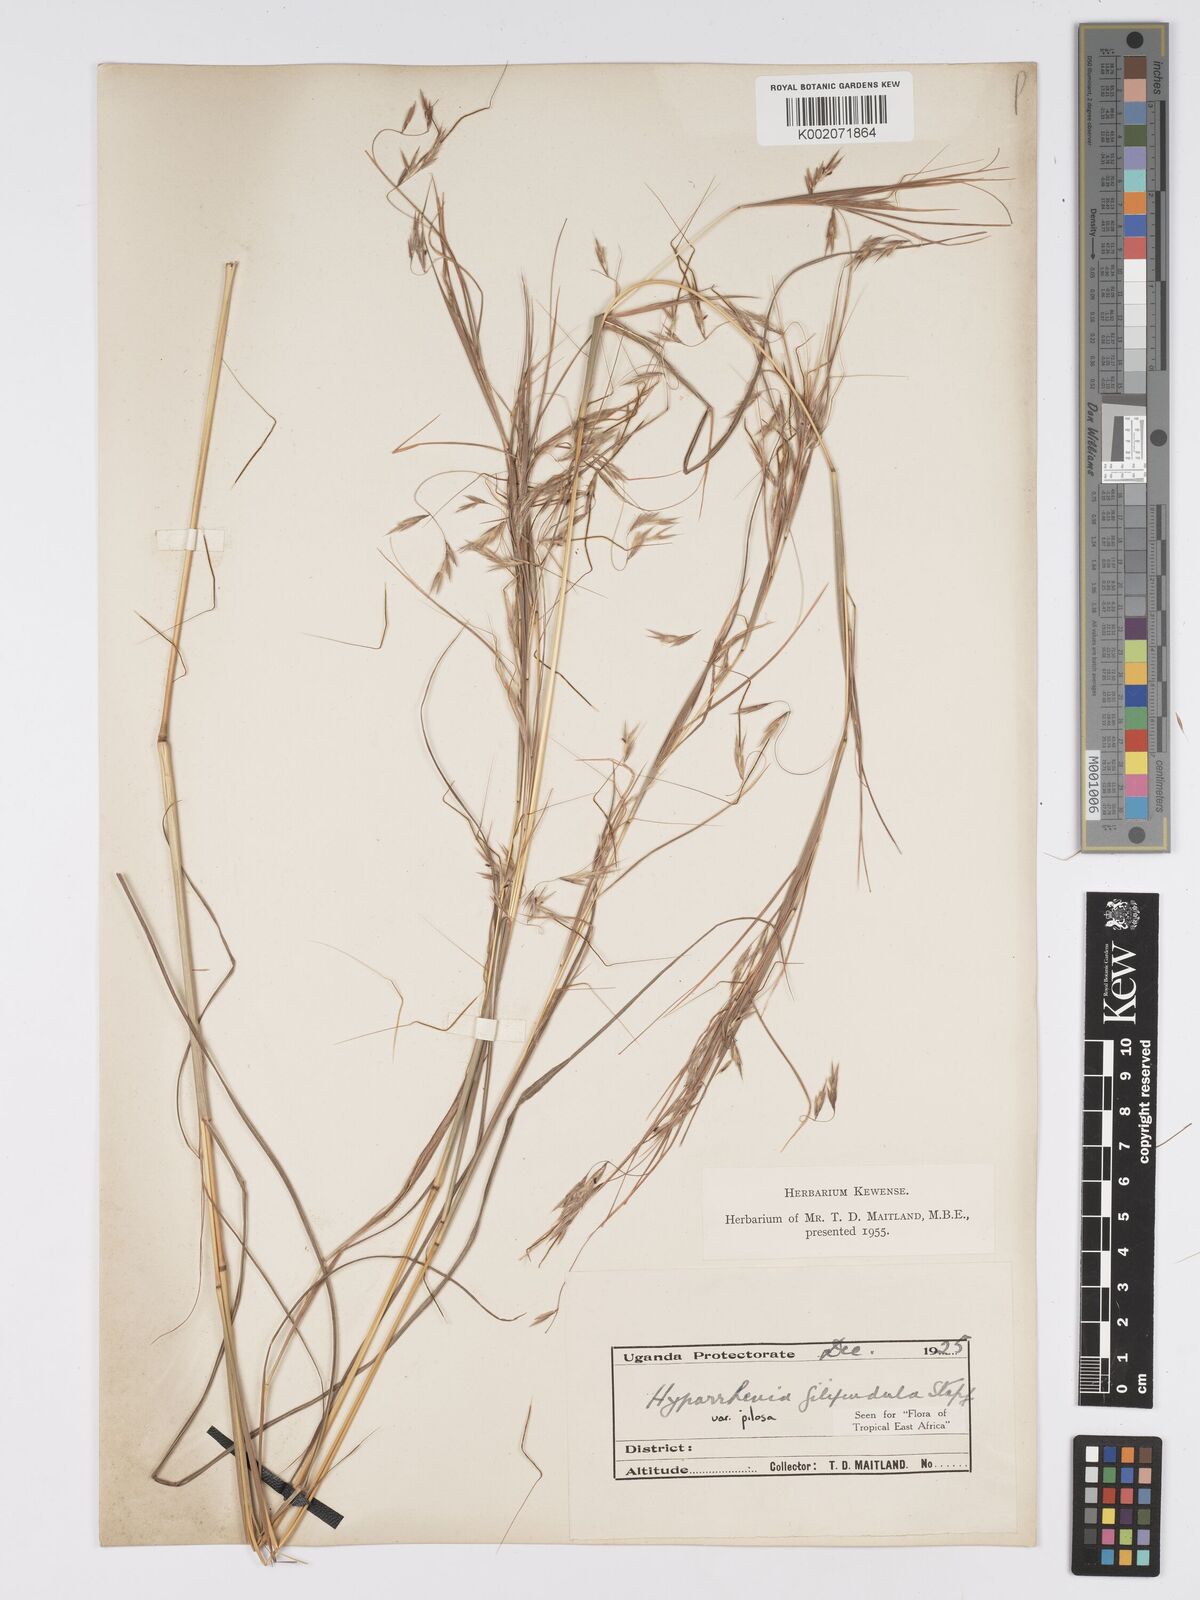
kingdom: Plantae
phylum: Tracheophyta
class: Liliopsida
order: Poales
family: Poaceae
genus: Hyparrhenia
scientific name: Hyparrhenia filipendula
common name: Tambookie grass
